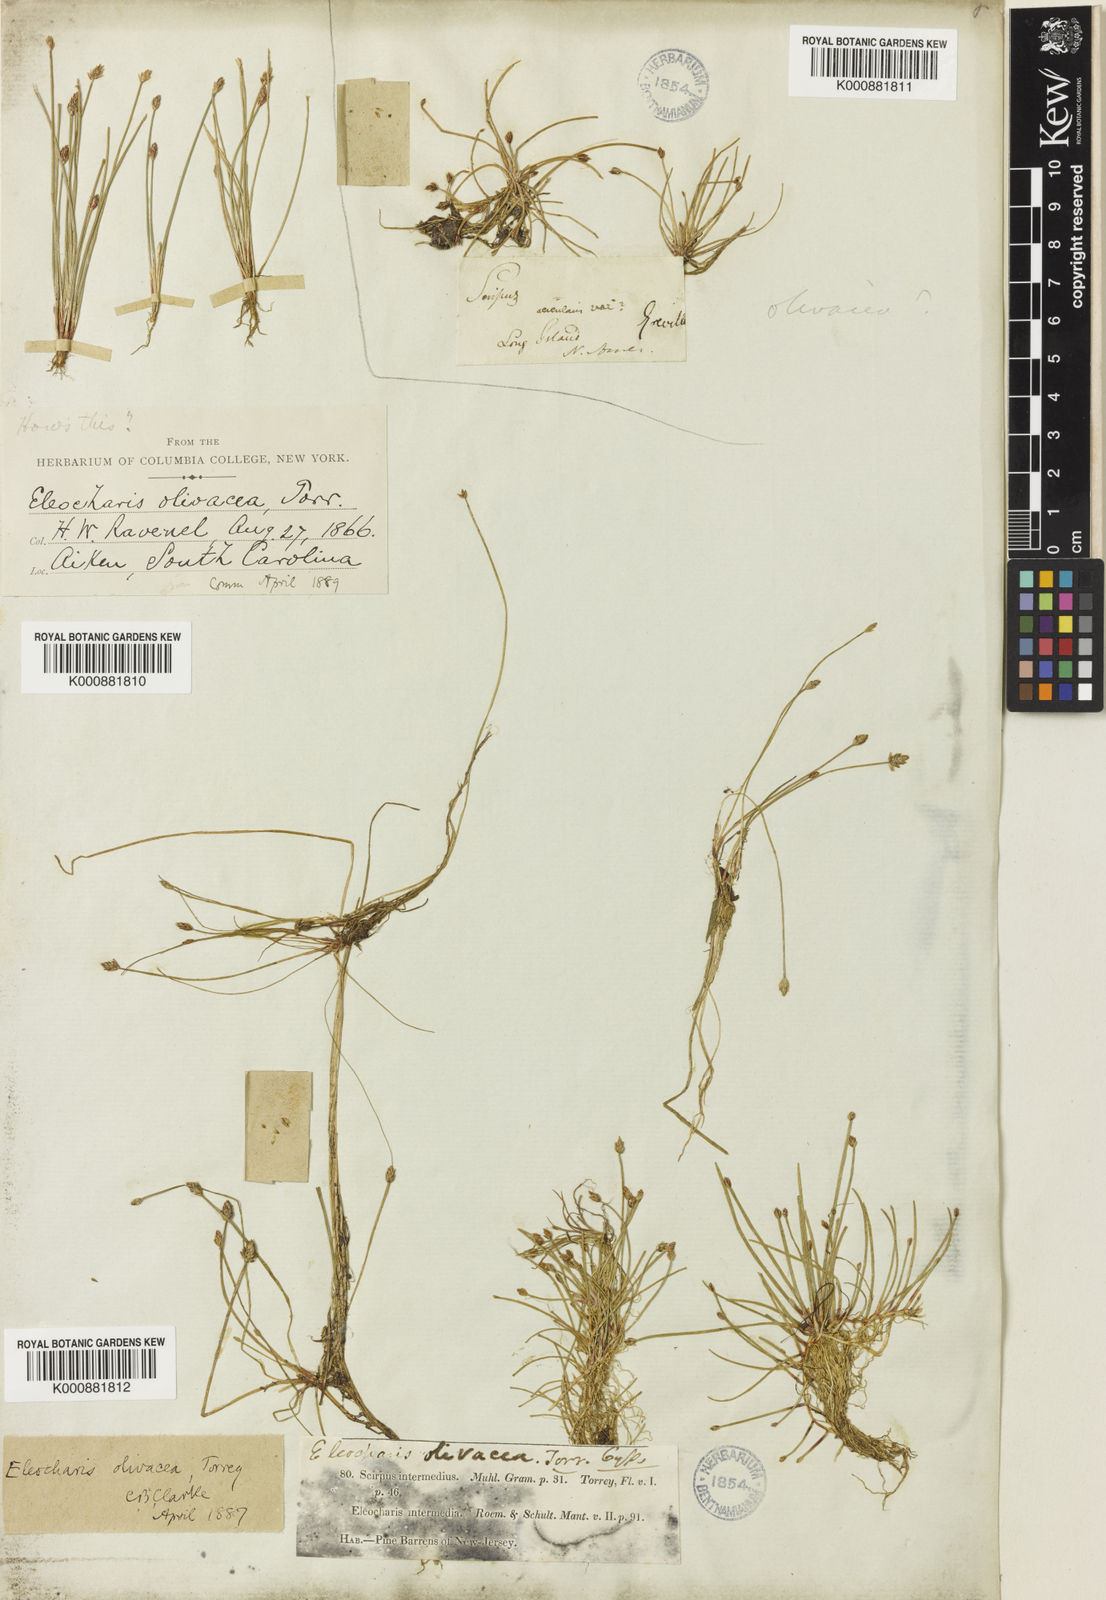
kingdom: Plantae
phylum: Tracheophyta
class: Liliopsida
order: Poales
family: Cyperaceae
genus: Eleocharis
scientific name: Eleocharis flavescens
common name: Yellow spikerush
